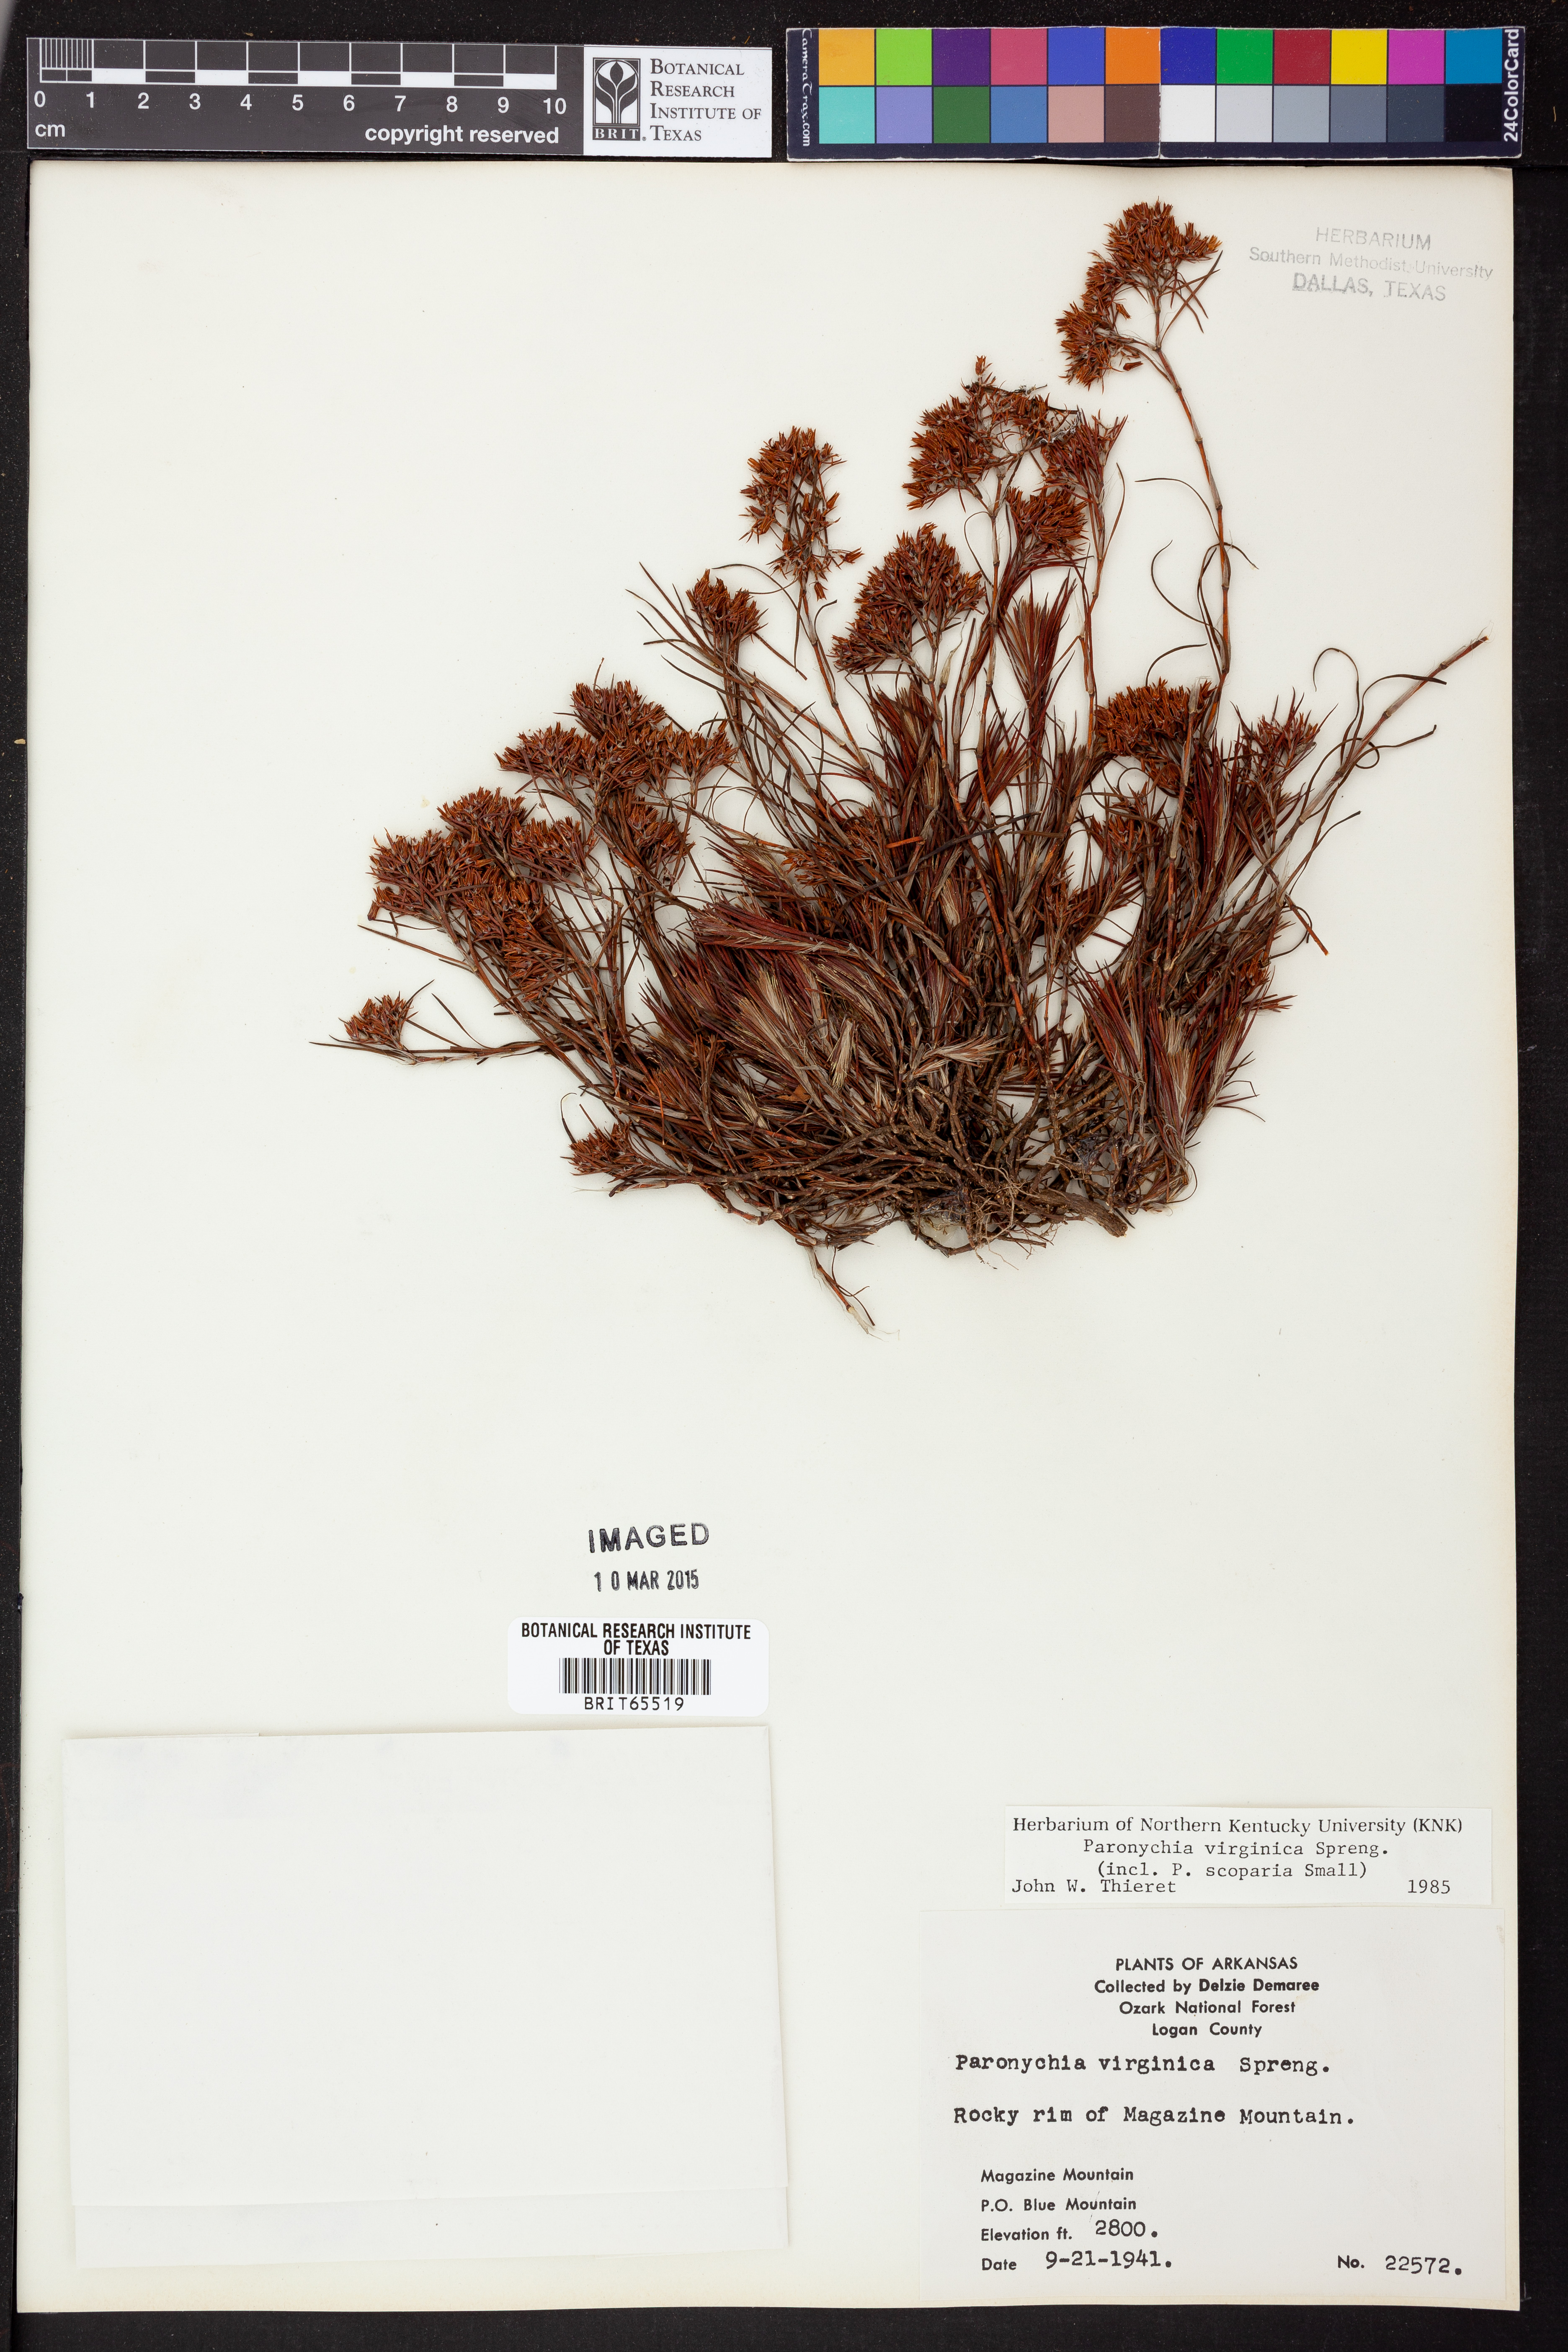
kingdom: Plantae
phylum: Tracheophyta
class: Magnoliopsida
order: Caryophyllales
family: Caryophyllaceae
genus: Paronychia
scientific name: Paronychia virginica
